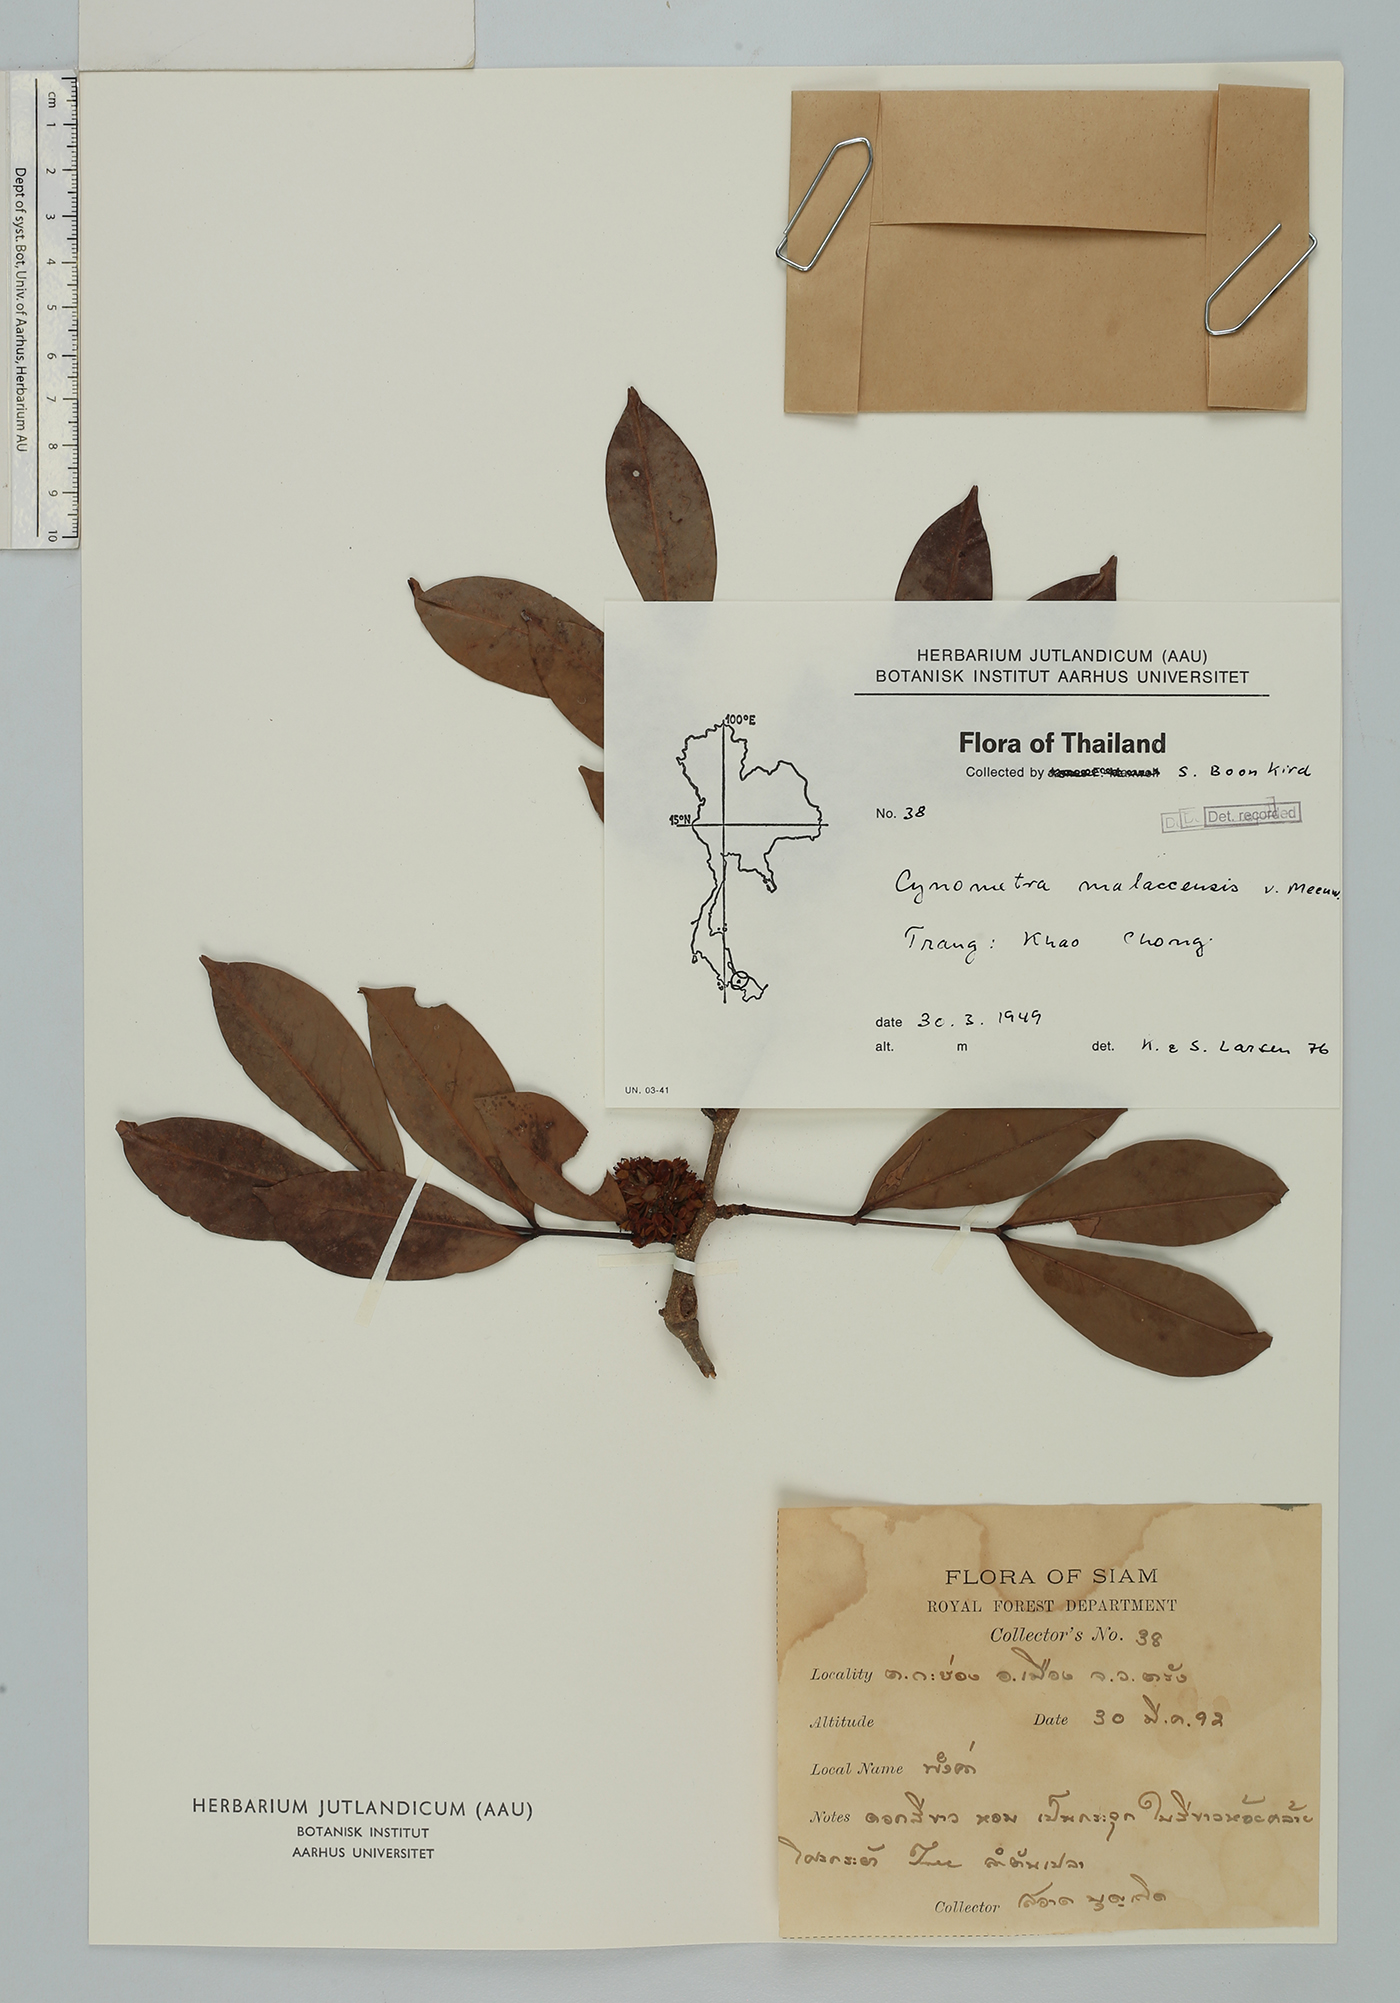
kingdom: Plantae
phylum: Tracheophyta
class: Magnoliopsida
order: Fabales
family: Fabaceae
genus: Cynometra
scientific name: Cynometra malaccensis
